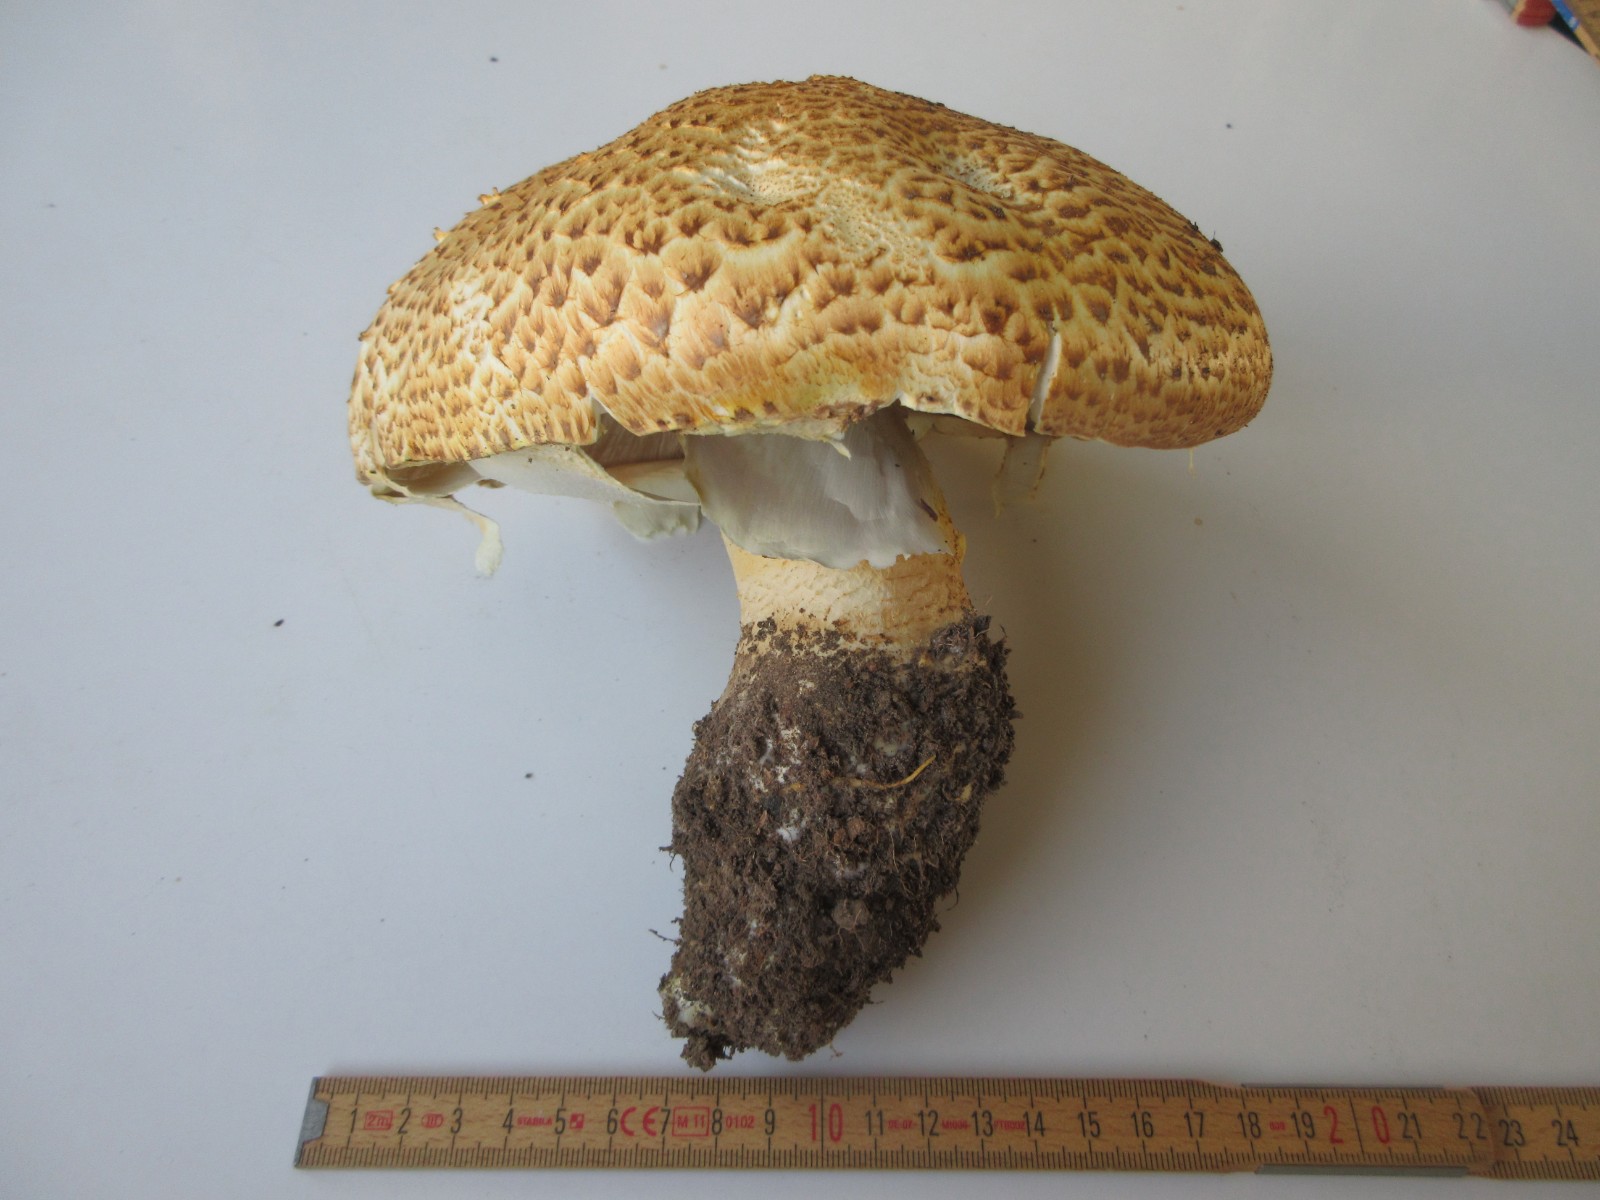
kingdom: Fungi
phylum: Basidiomycota
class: Agaricomycetes
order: Agaricales
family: Agaricaceae
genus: Agaricus
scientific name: Agaricus augustus
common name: prægtig champignon
